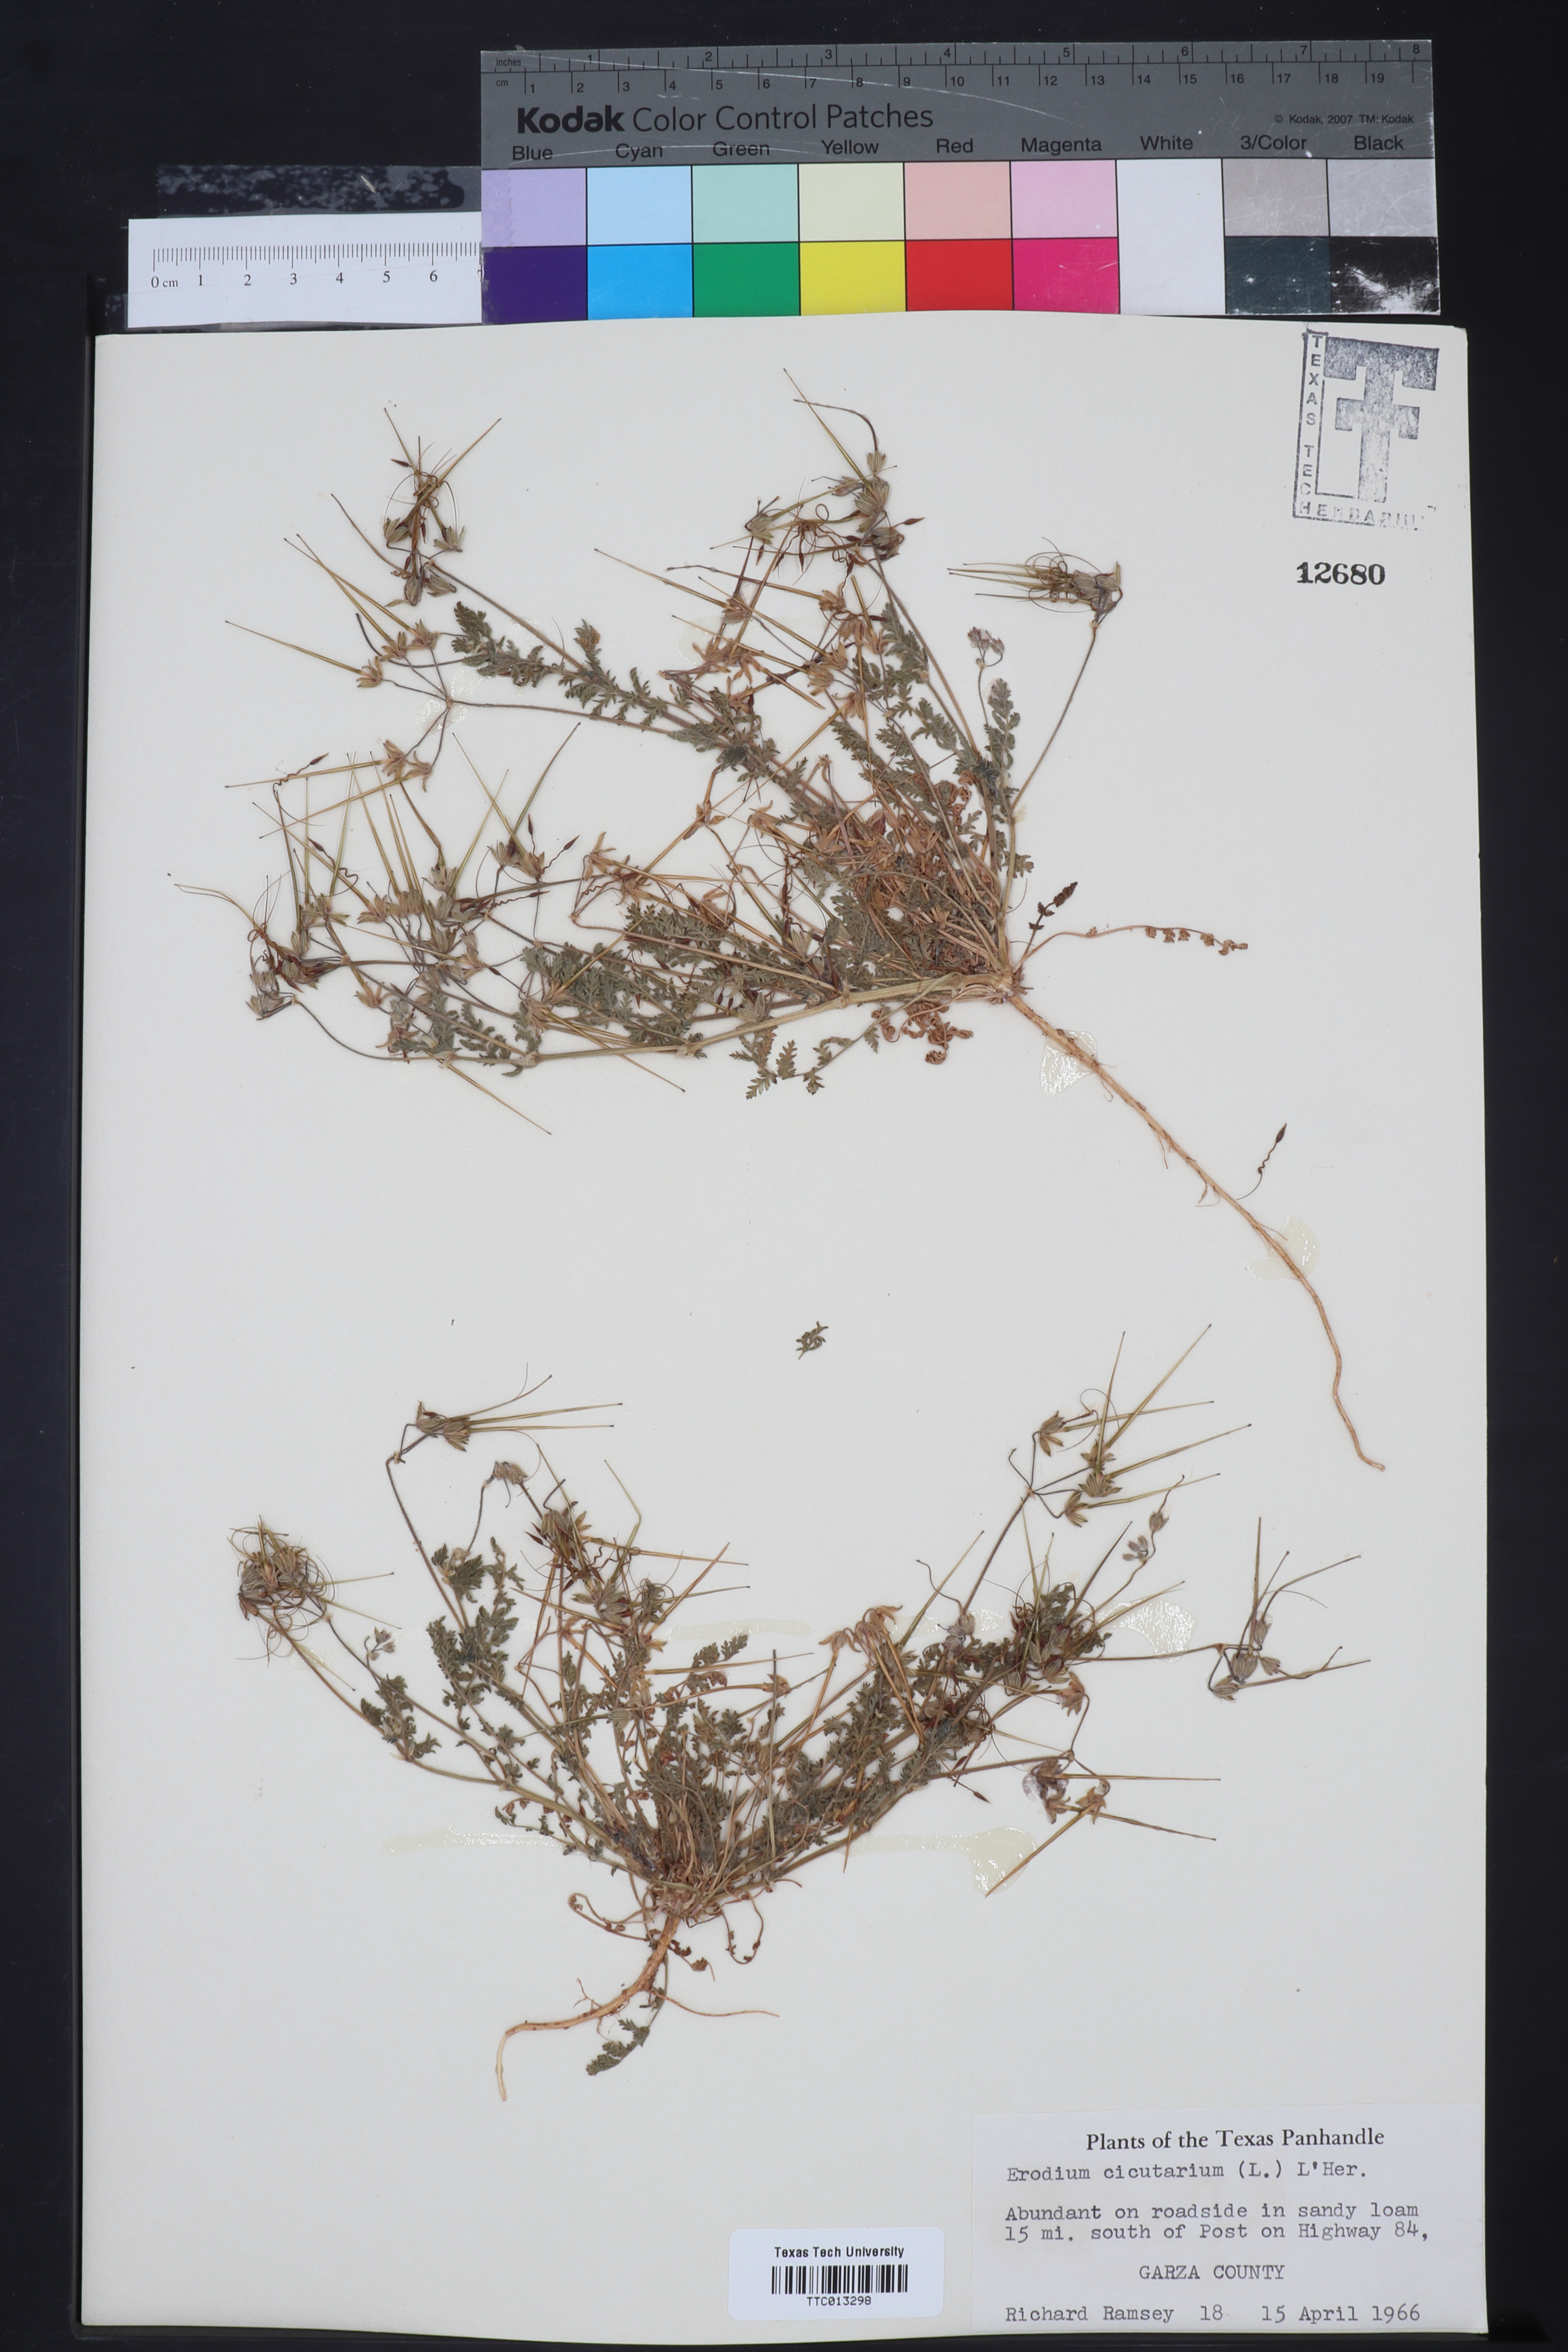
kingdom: Plantae
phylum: Tracheophyta
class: Magnoliopsida
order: Geraniales
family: Geraniaceae
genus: Erodium
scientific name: Erodium cicutarium
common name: Common stork's-bill
